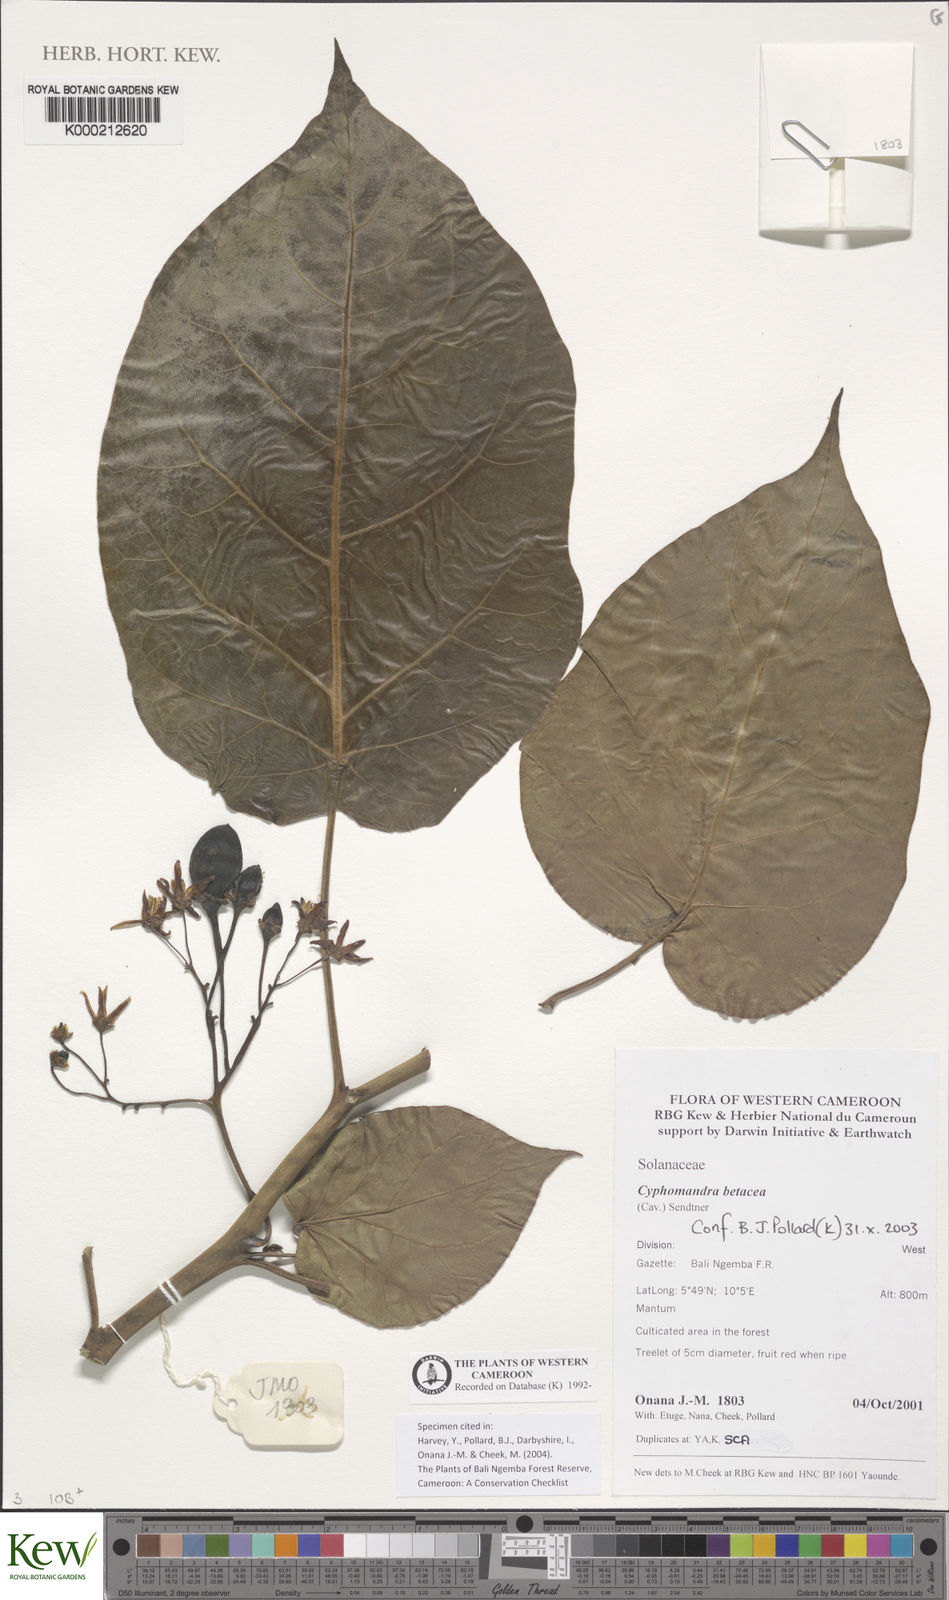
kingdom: Plantae
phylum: Tracheophyta
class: Magnoliopsida
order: Solanales
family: Solanaceae
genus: Solanum
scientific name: Solanum betaceum
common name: Tamarillo
